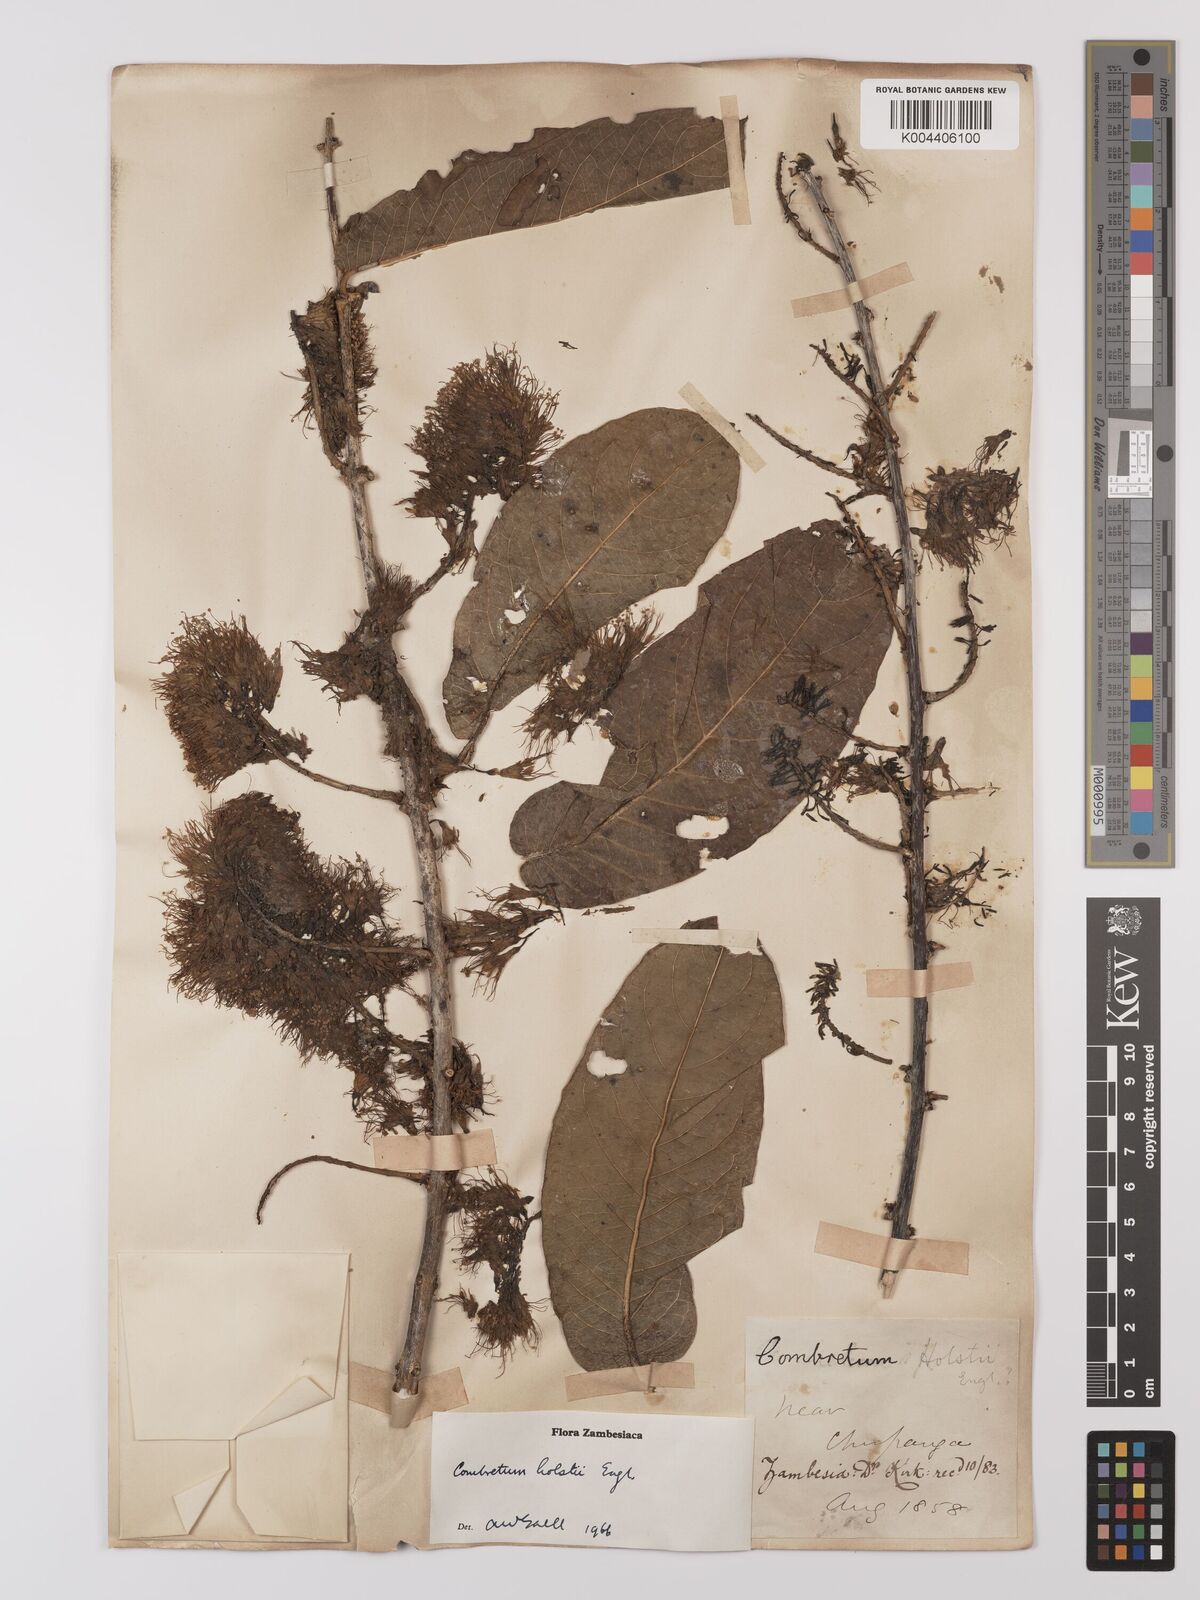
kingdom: Plantae
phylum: Tracheophyta
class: Magnoliopsida
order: Myrtales
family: Combretaceae
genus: Combretum
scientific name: Combretum holstii
